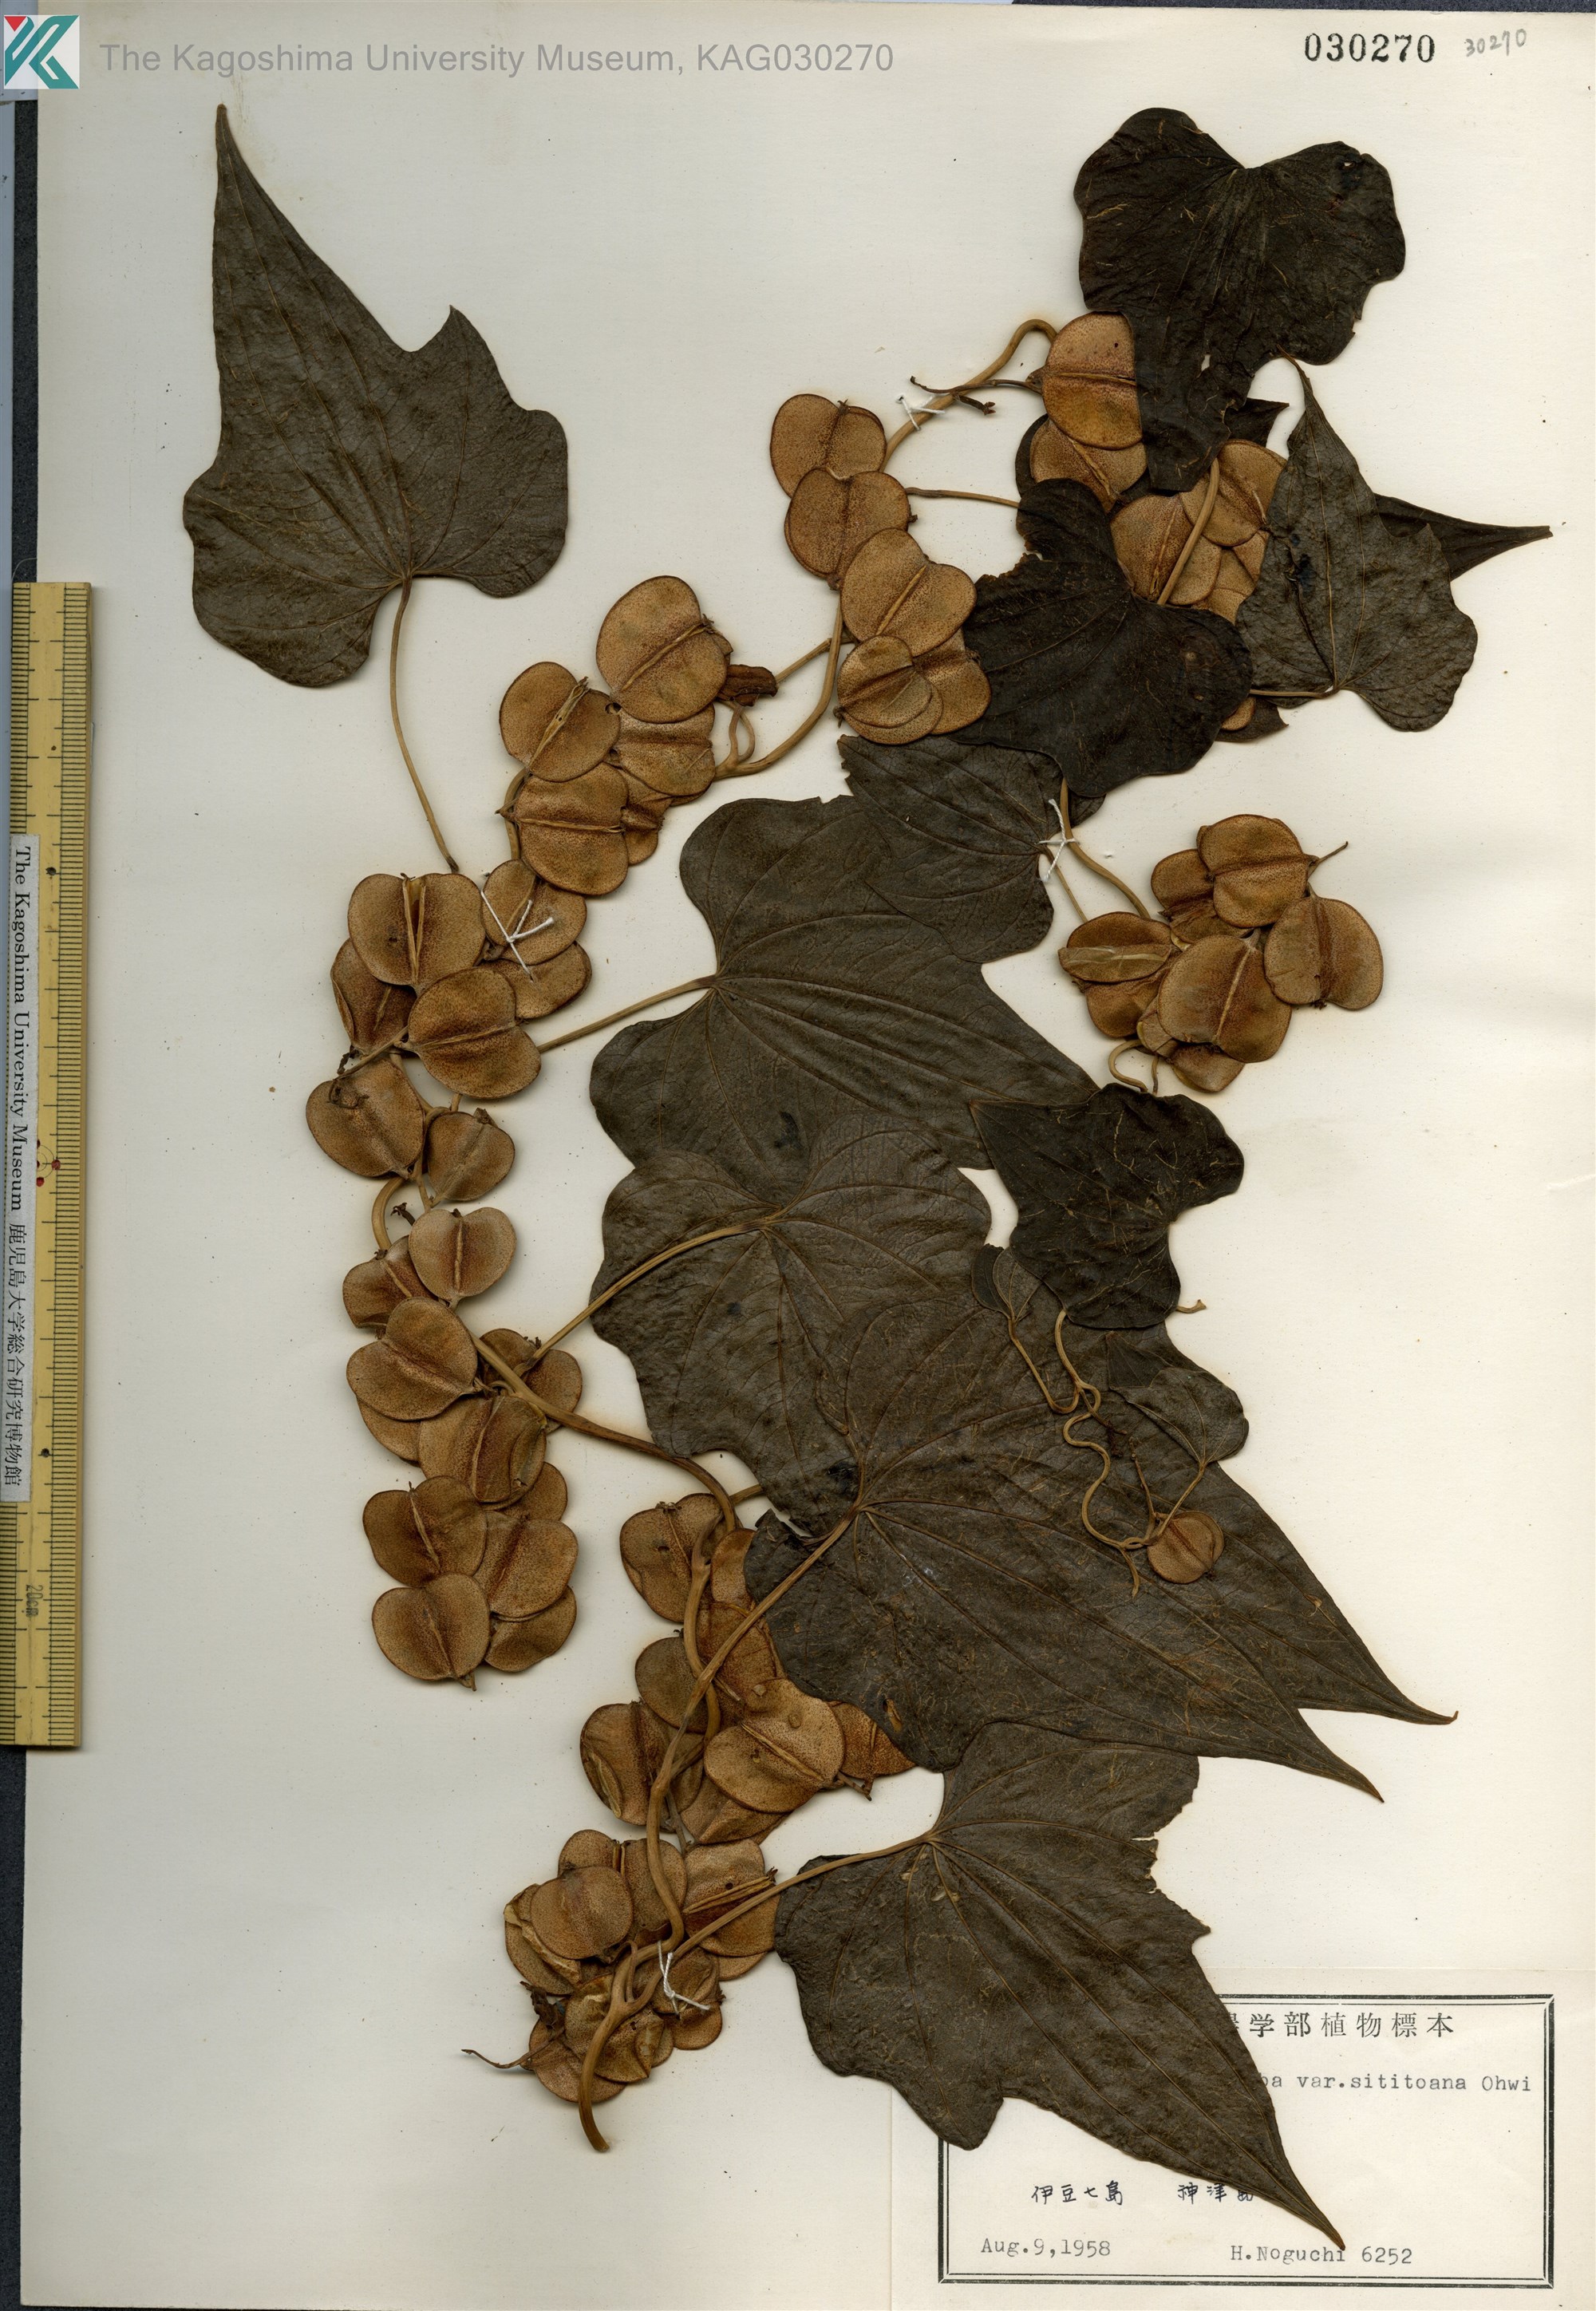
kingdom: Plantae
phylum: Tracheophyta
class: Liliopsida
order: Dioscoreales
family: Dioscoreaceae
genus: Dioscorea
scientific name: Dioscorea septemloba
